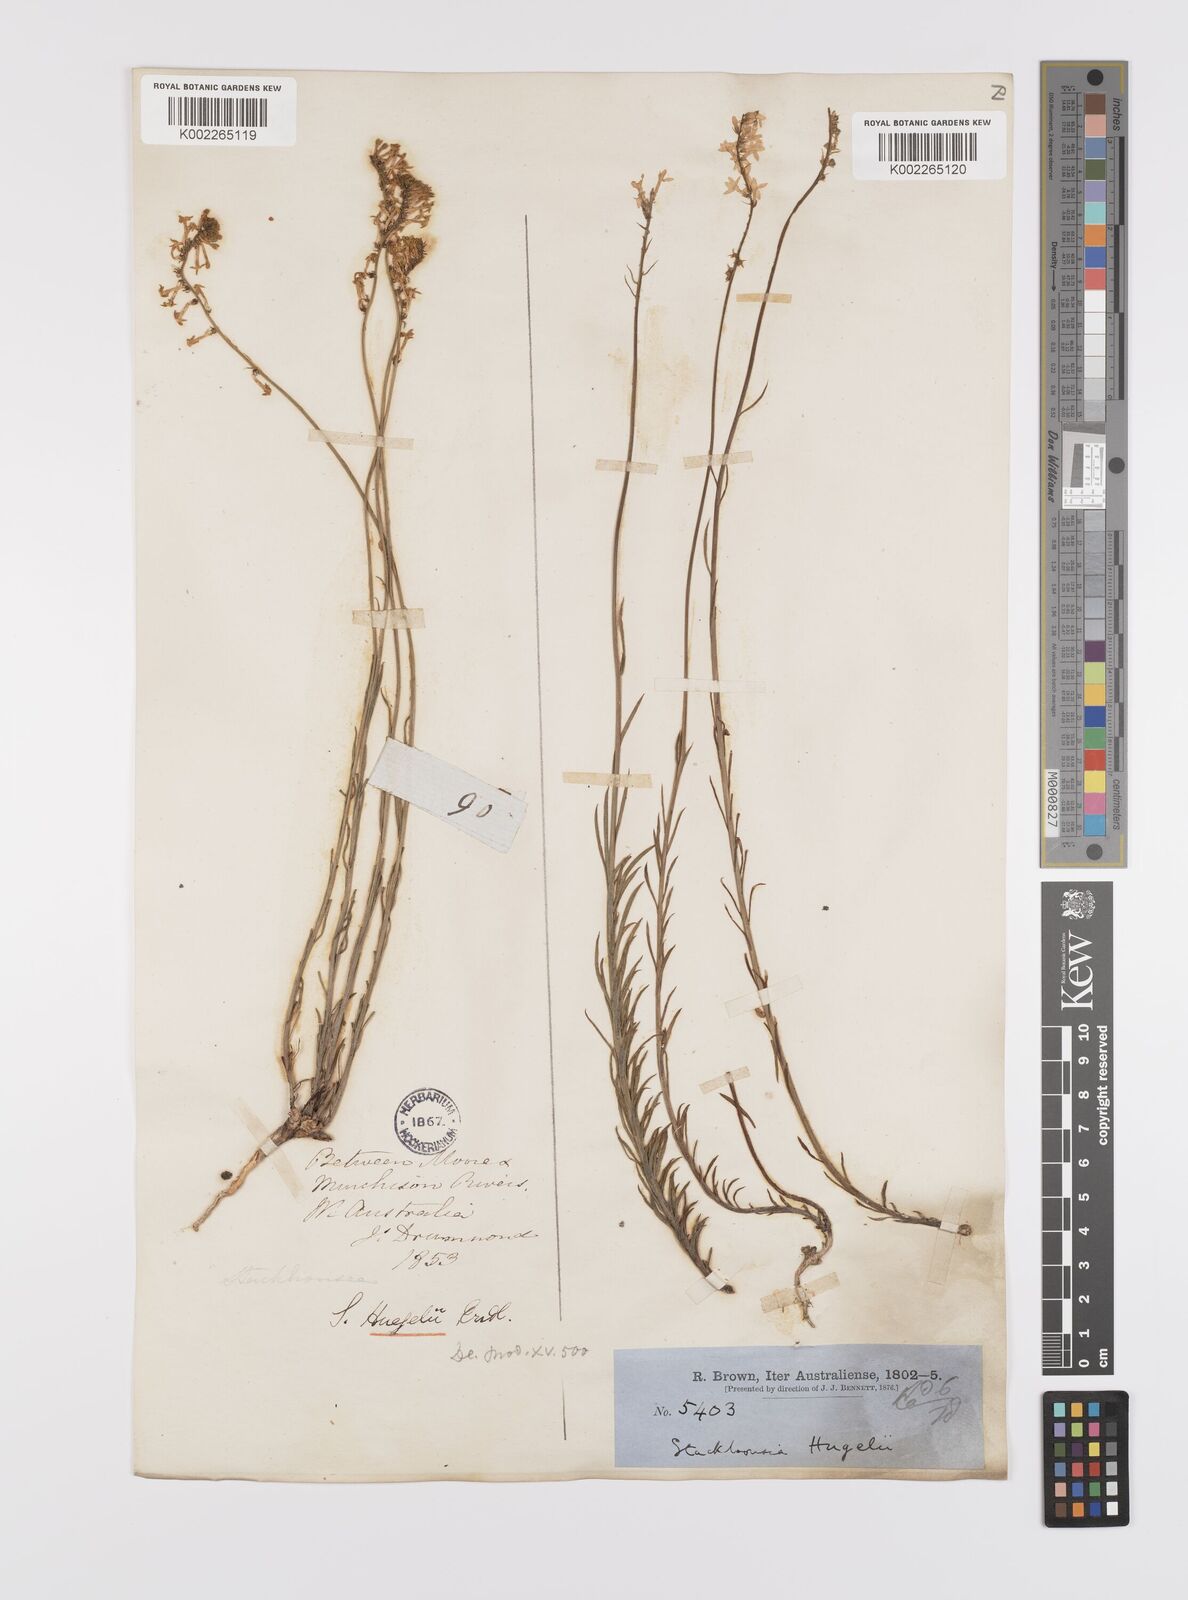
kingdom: Plantae
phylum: Tracheophyta
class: Magnoliopsida
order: Celastrales
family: Celastraceae
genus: Stackhousia
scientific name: Stackhousia monogyna
